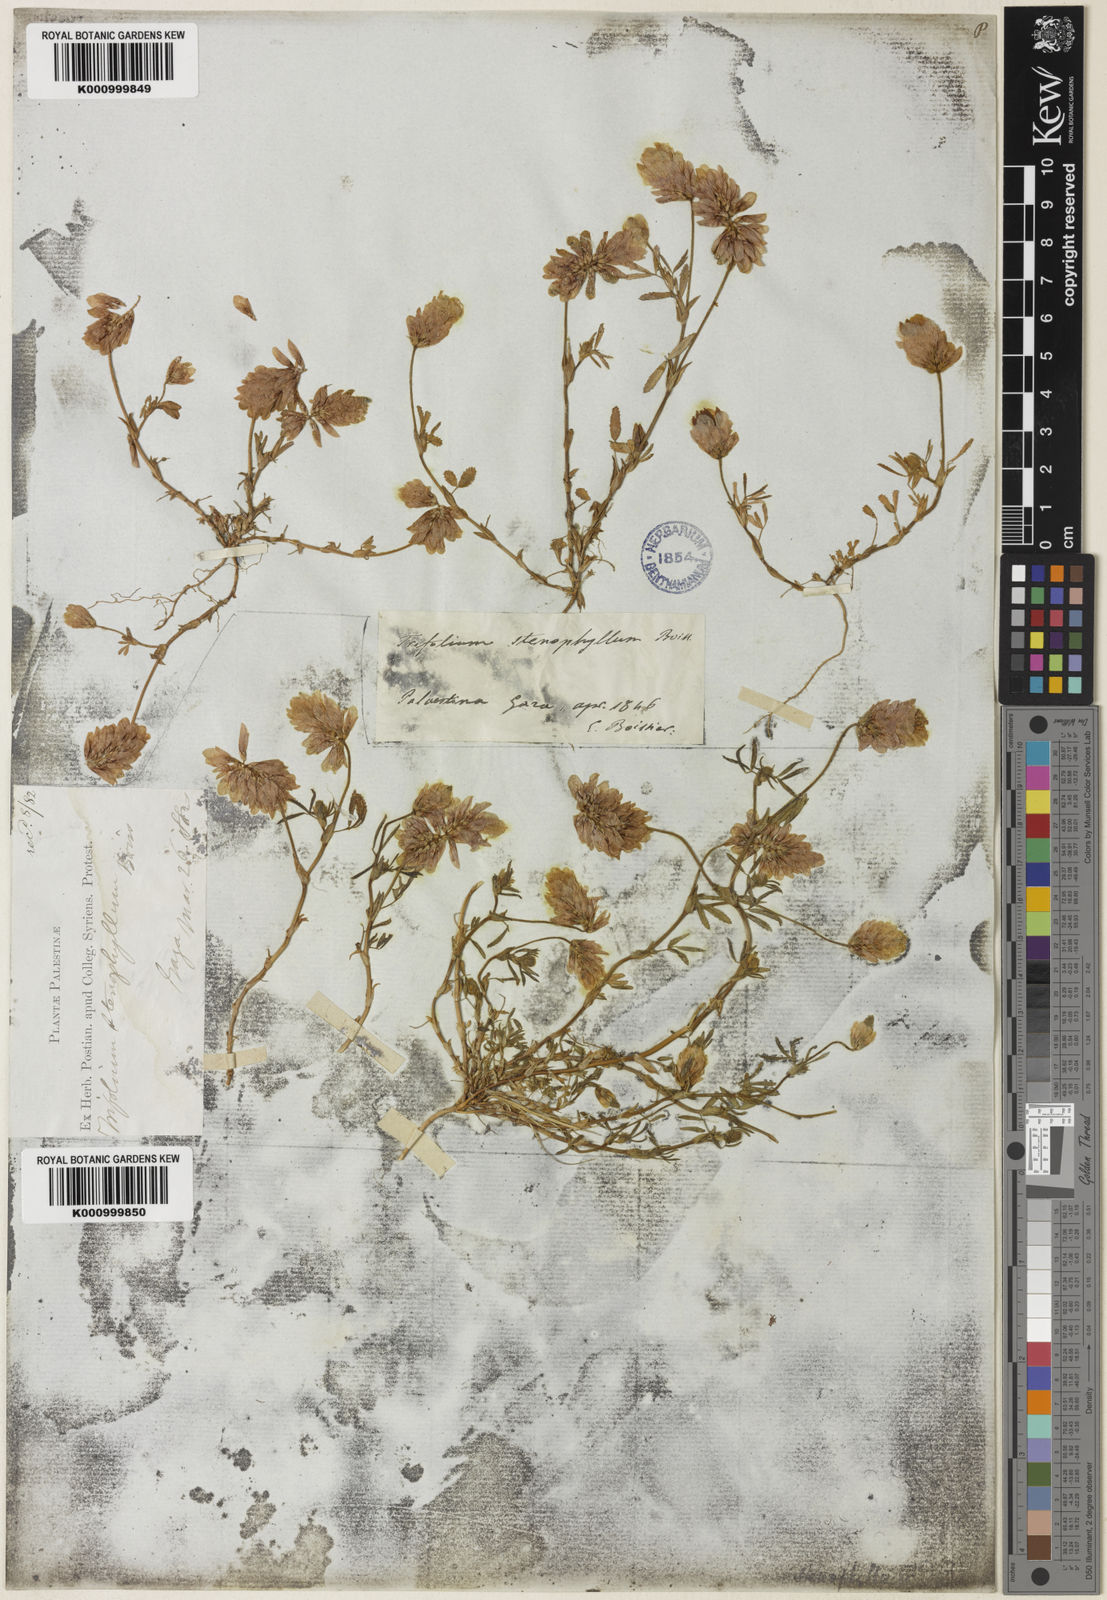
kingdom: Plantae
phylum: Tracheophyta
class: Magnoliopsida
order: Fabales
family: Fabaceae
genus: Trifolium
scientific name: Trifolium philistaeum
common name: Palestine clover
